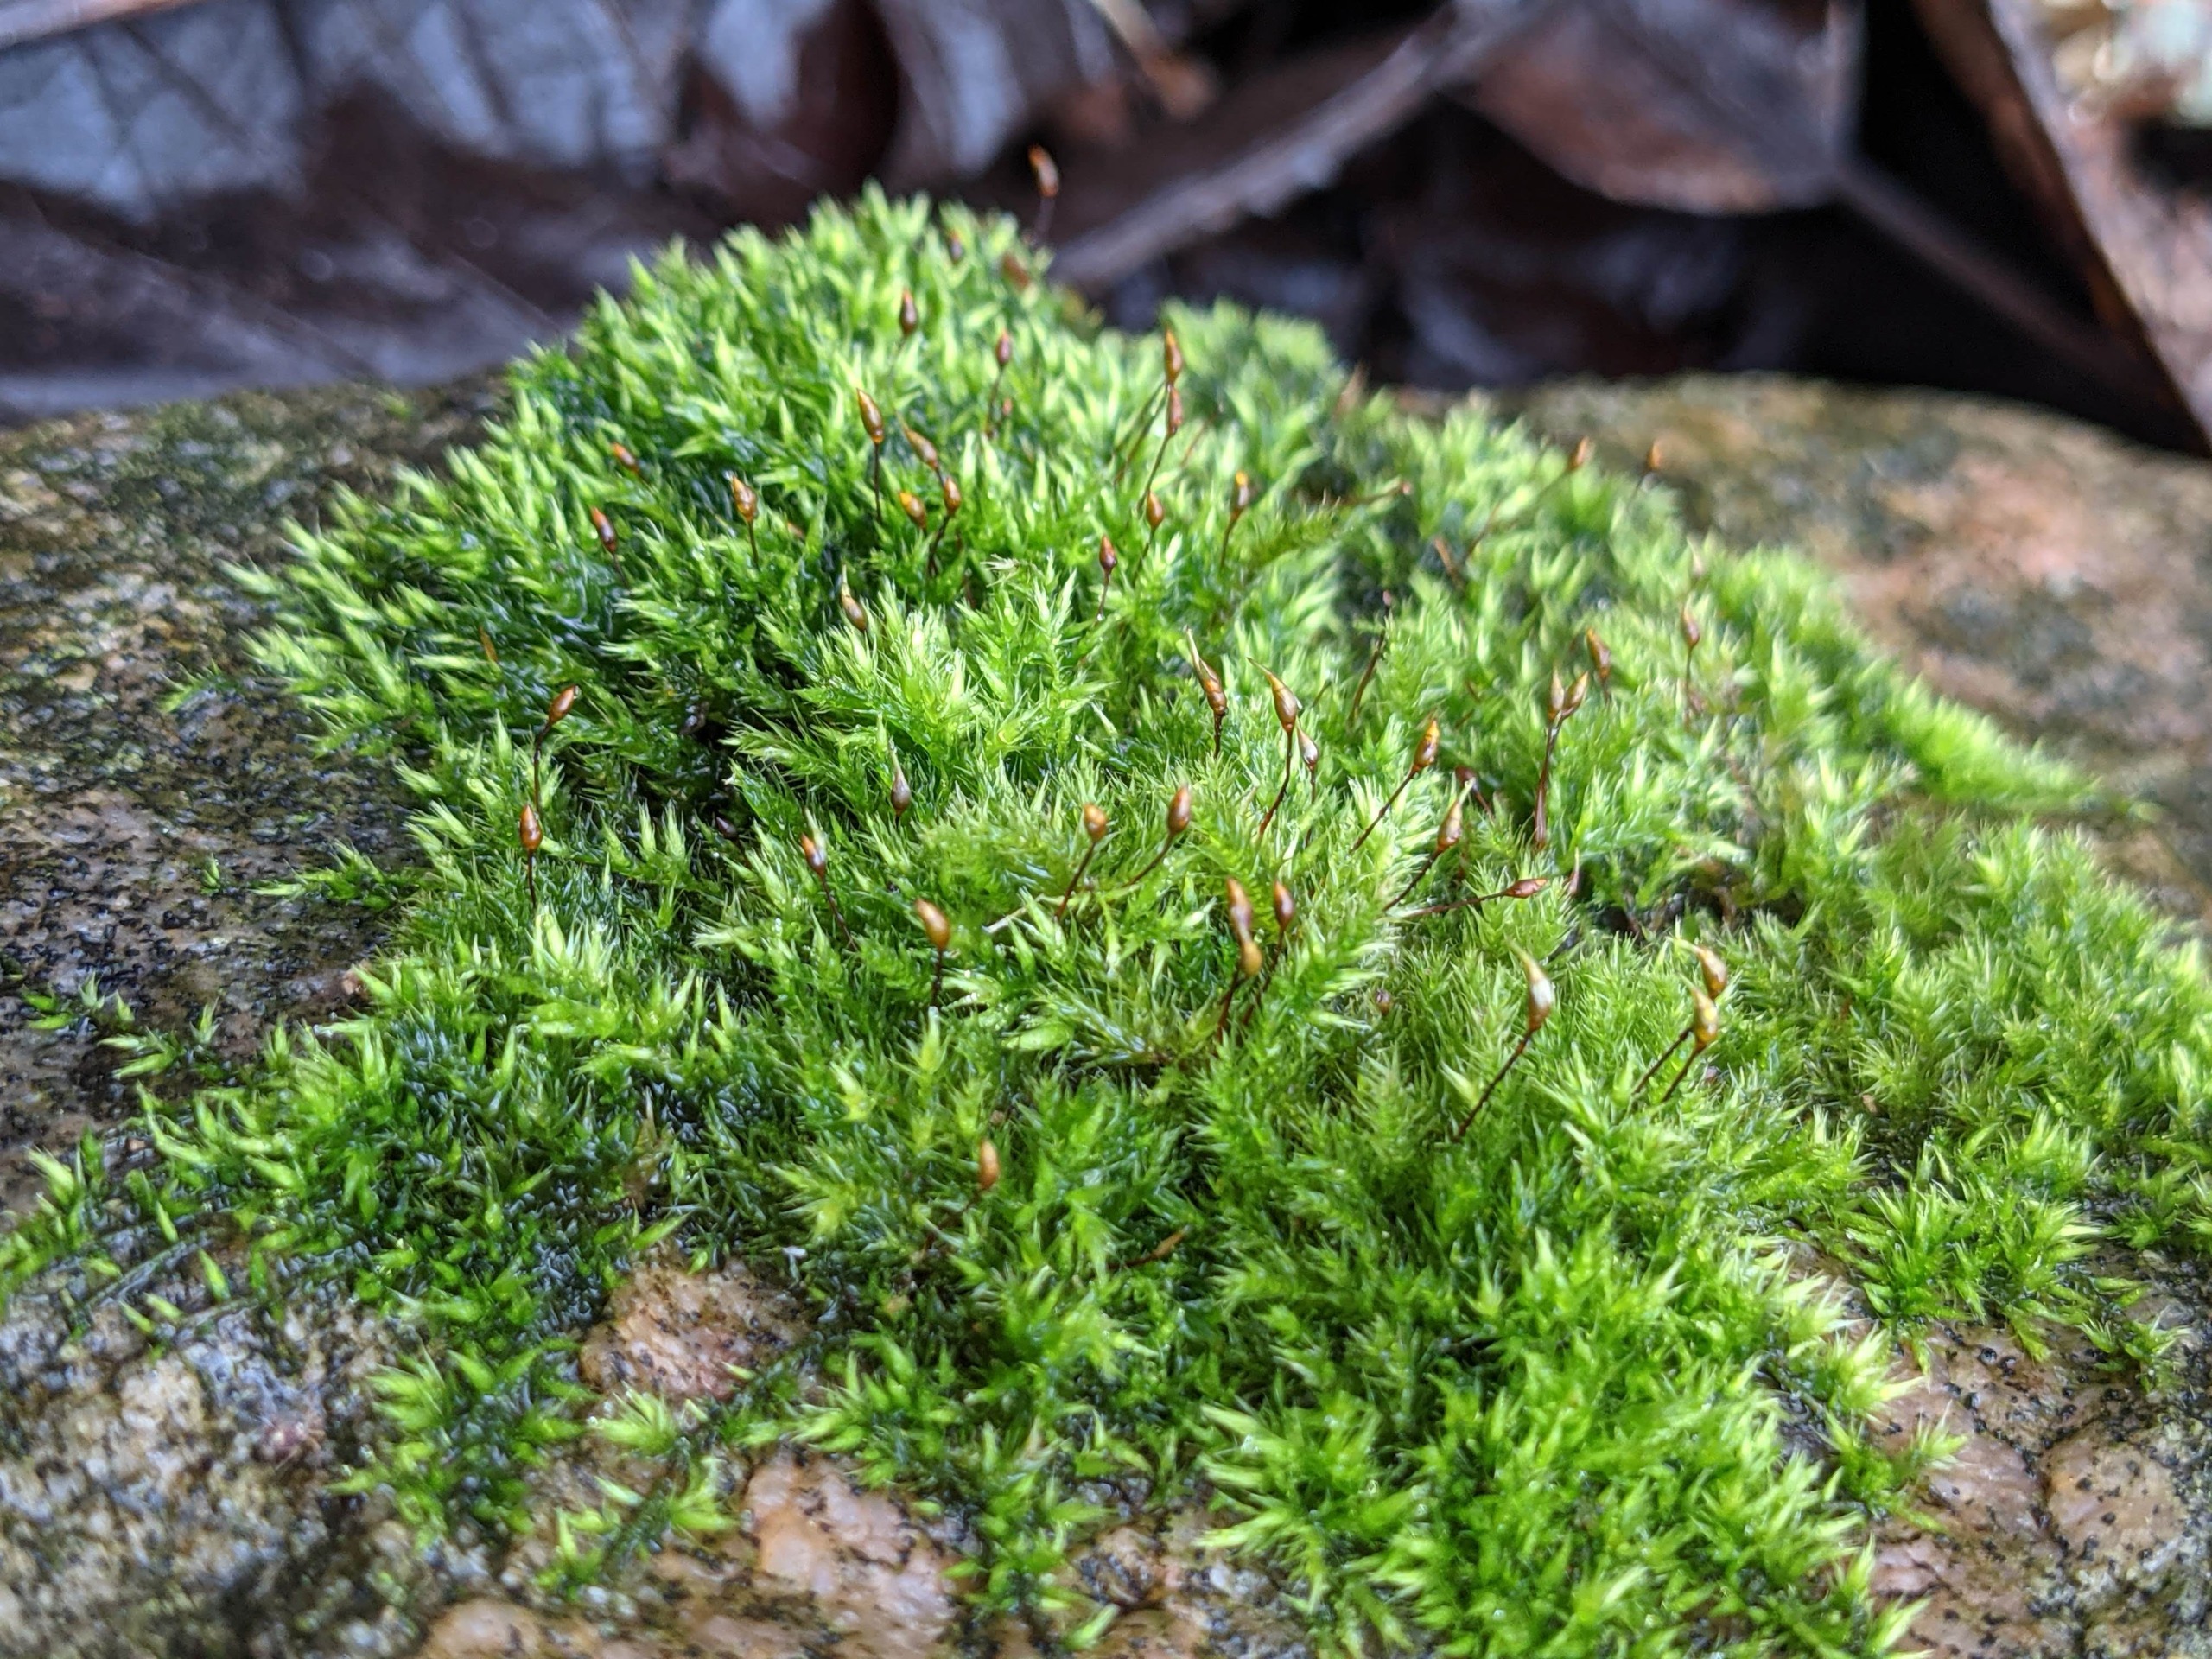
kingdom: Plantae
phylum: Bryophyta
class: Bryopsida
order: Hypnales
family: Brachytheciaceae
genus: Sciuro-hypnum
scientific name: Sciuro-hypnum populeum
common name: Park-kortkapsel
